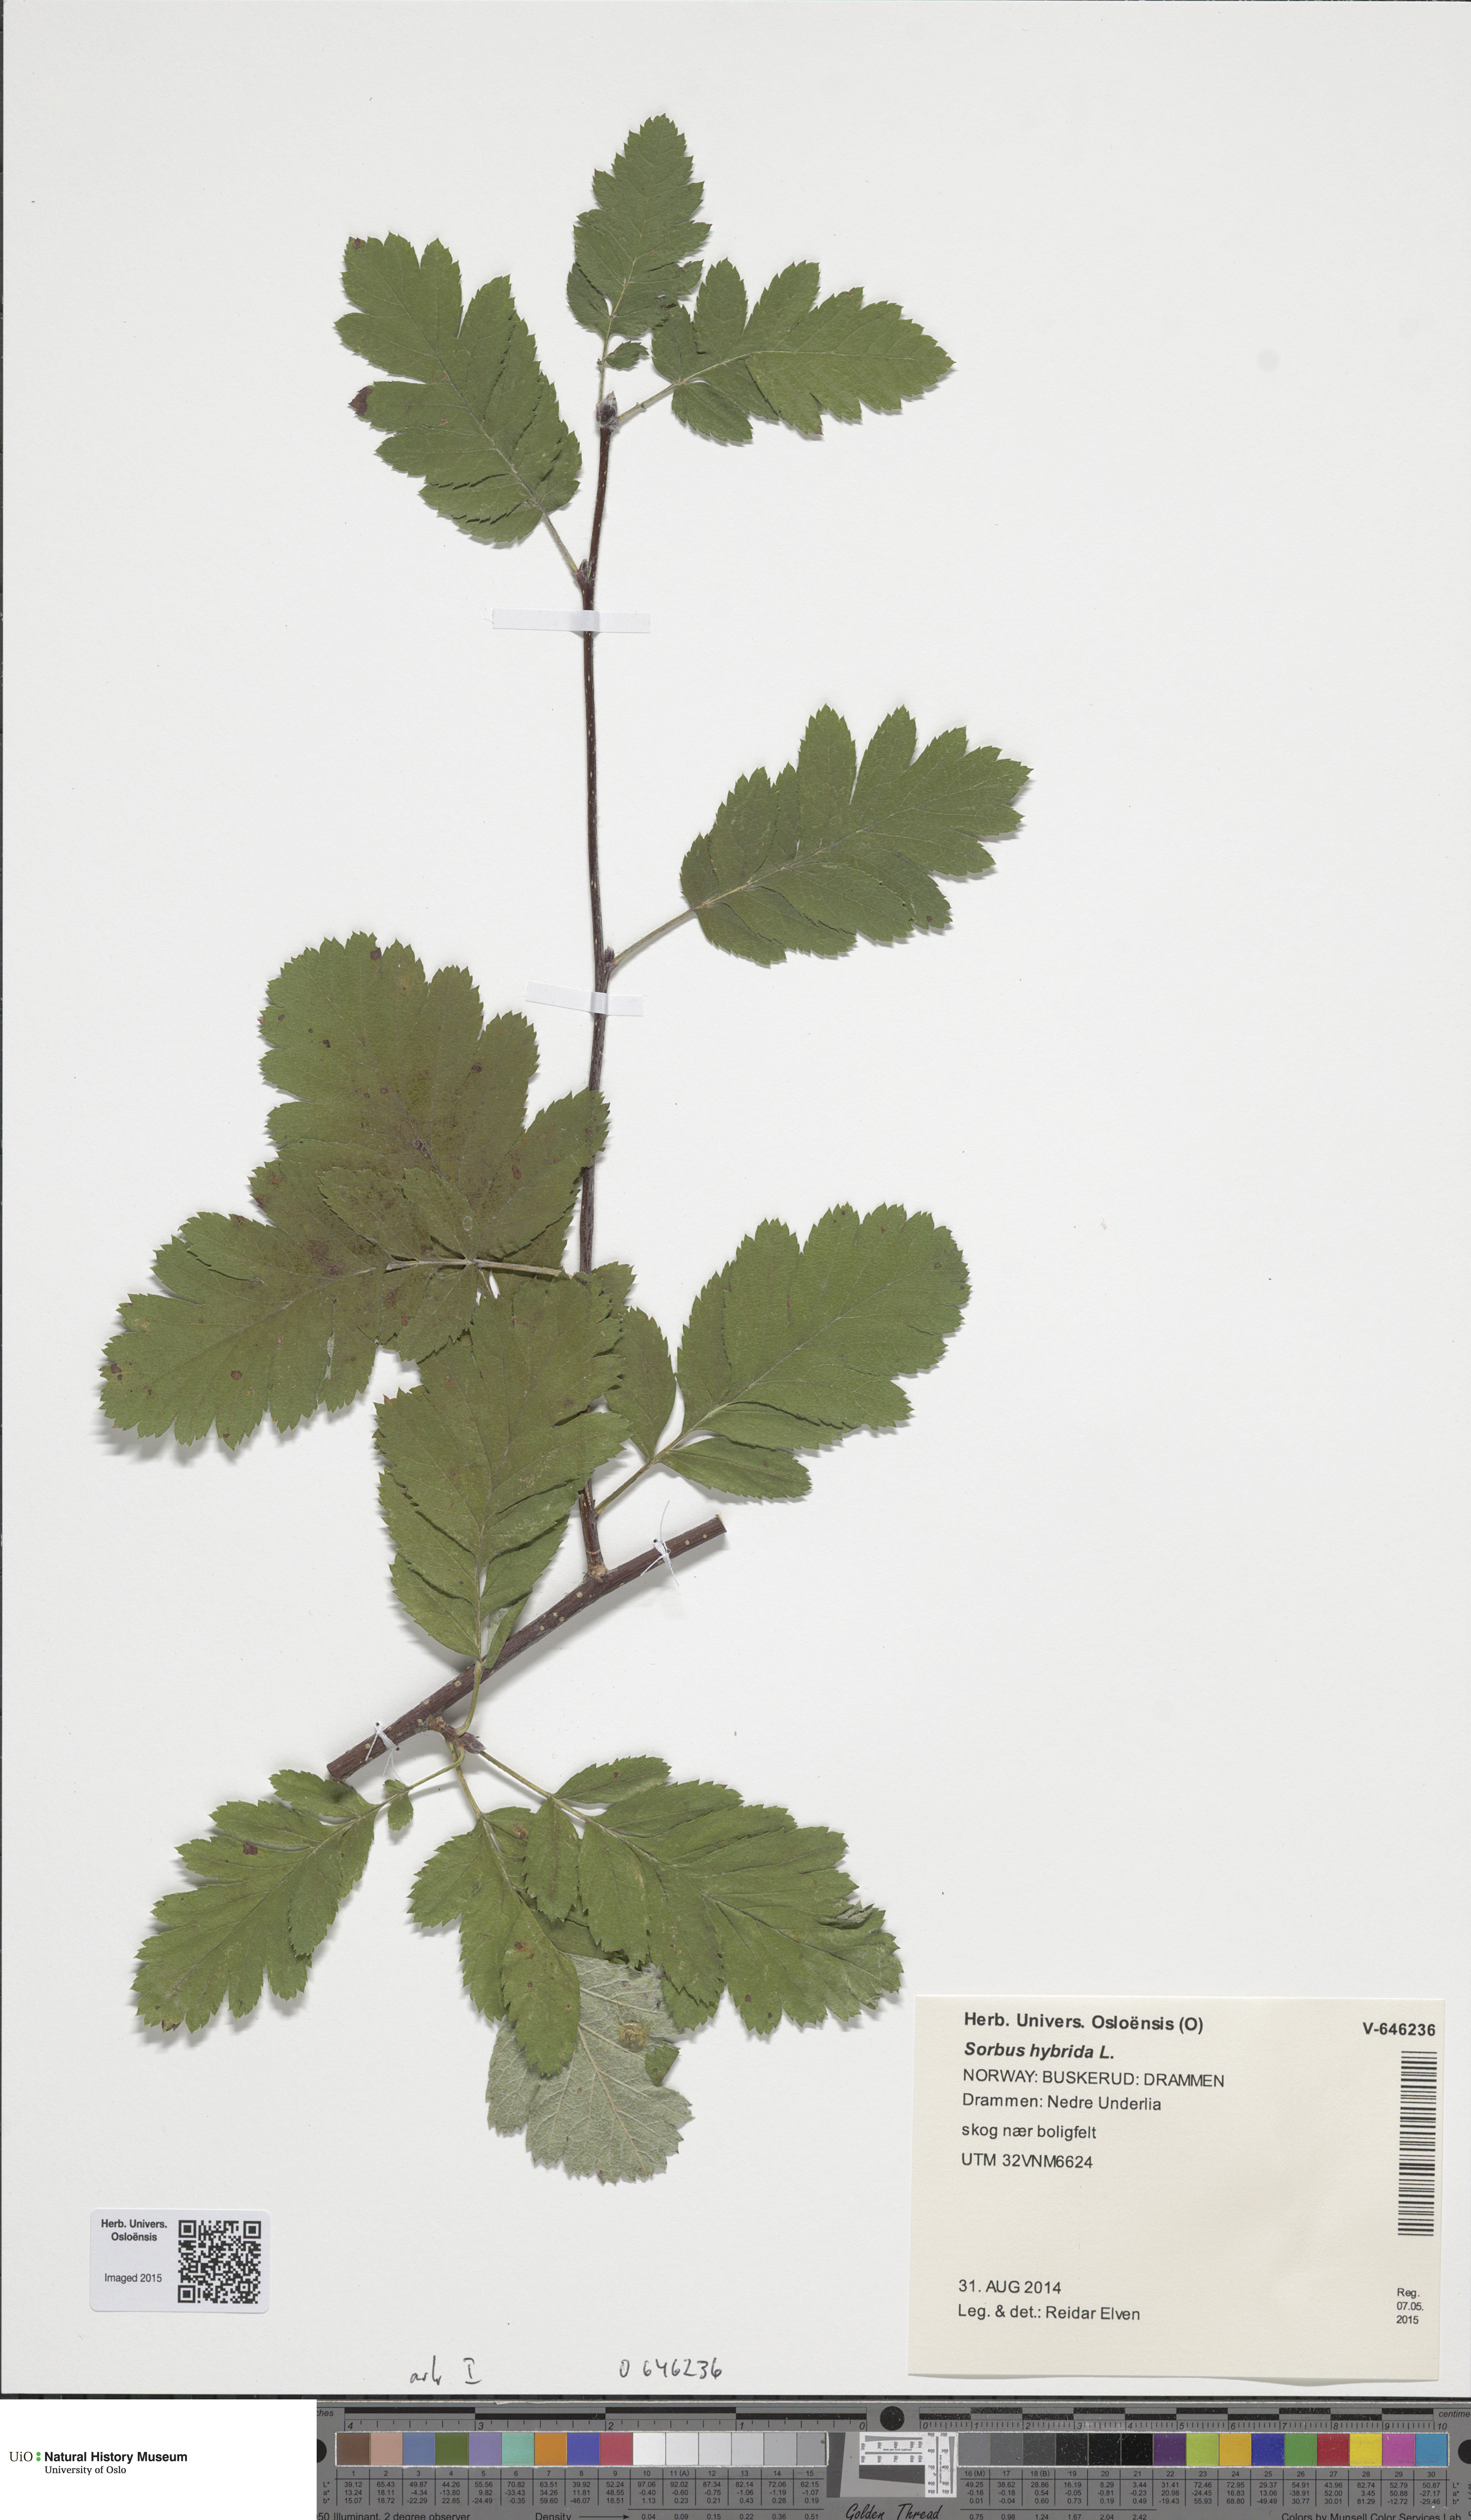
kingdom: Plantae
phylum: Tracheophyta
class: Magnoliopsida
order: Rosales
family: Rosaceae
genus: Hedlundia
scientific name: Hedlundia hybrida
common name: Swedish service-tree
